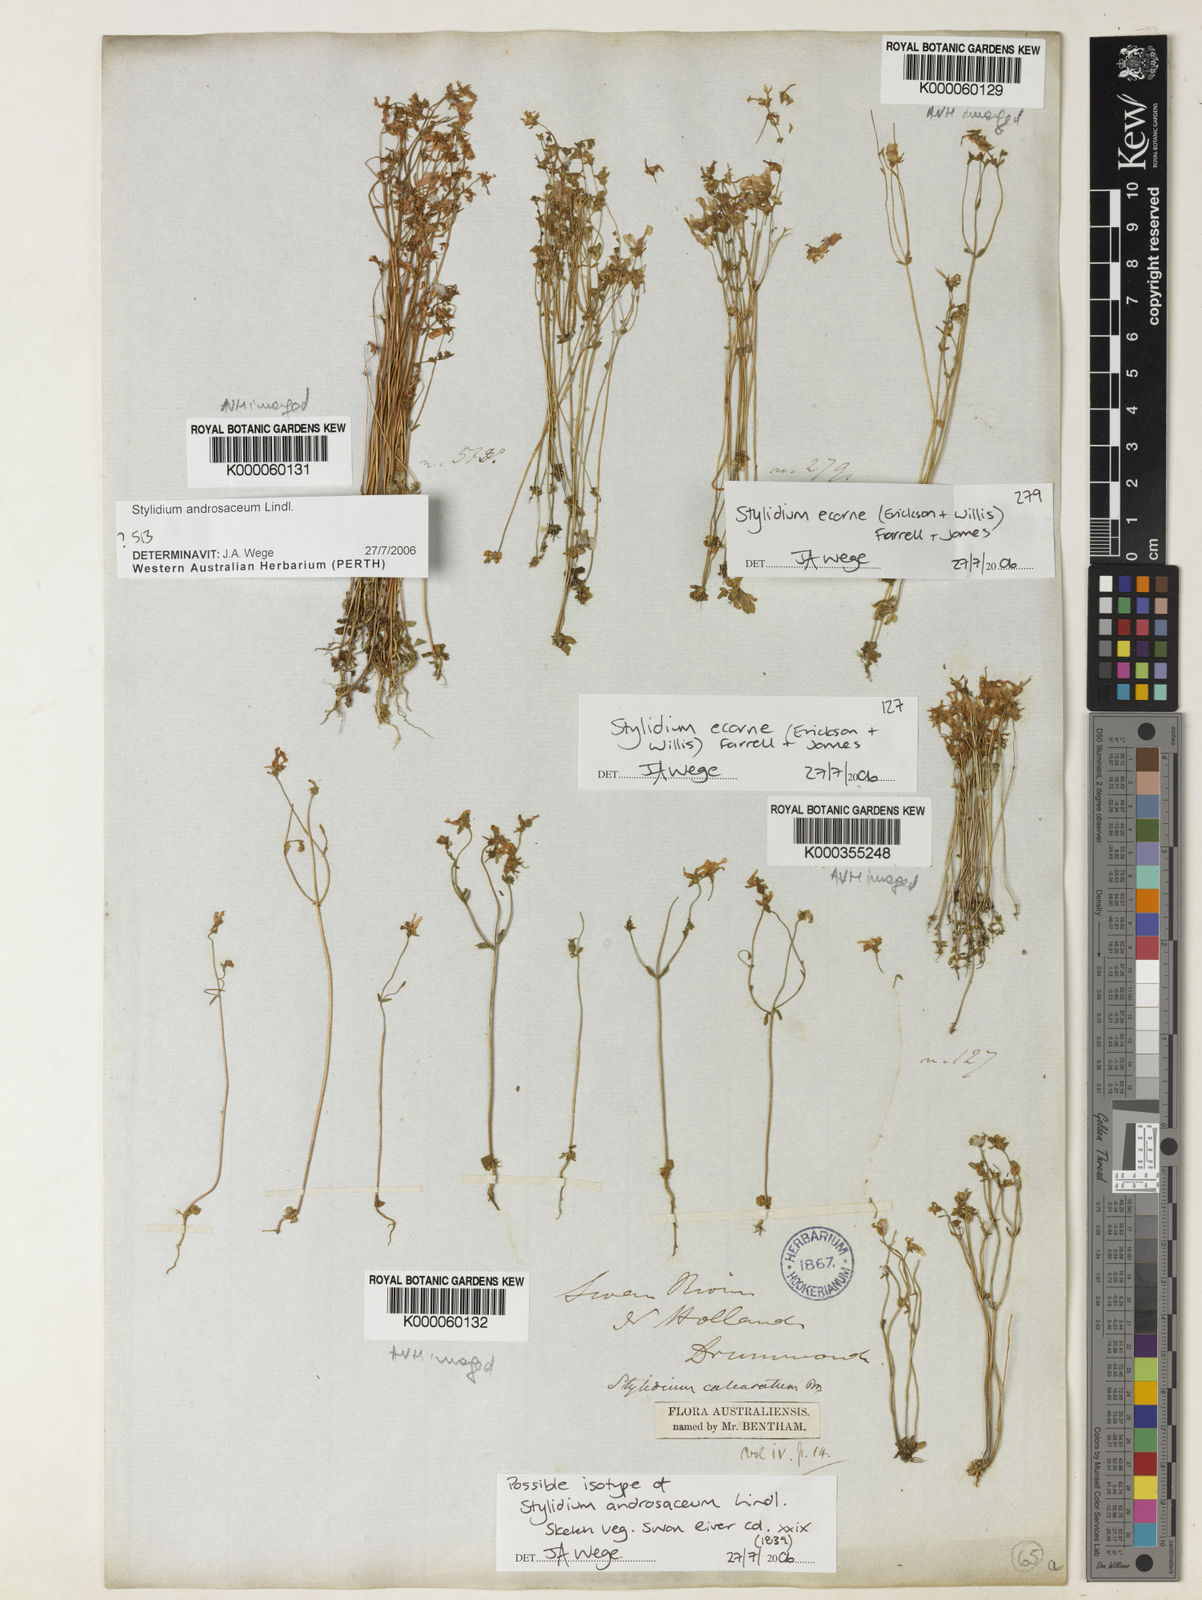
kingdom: Plantae
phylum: Tracheophyta
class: Magnoliopsida
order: Asterales
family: Stylidiaceae
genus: Stylidium
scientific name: Stylidium androsaceum
